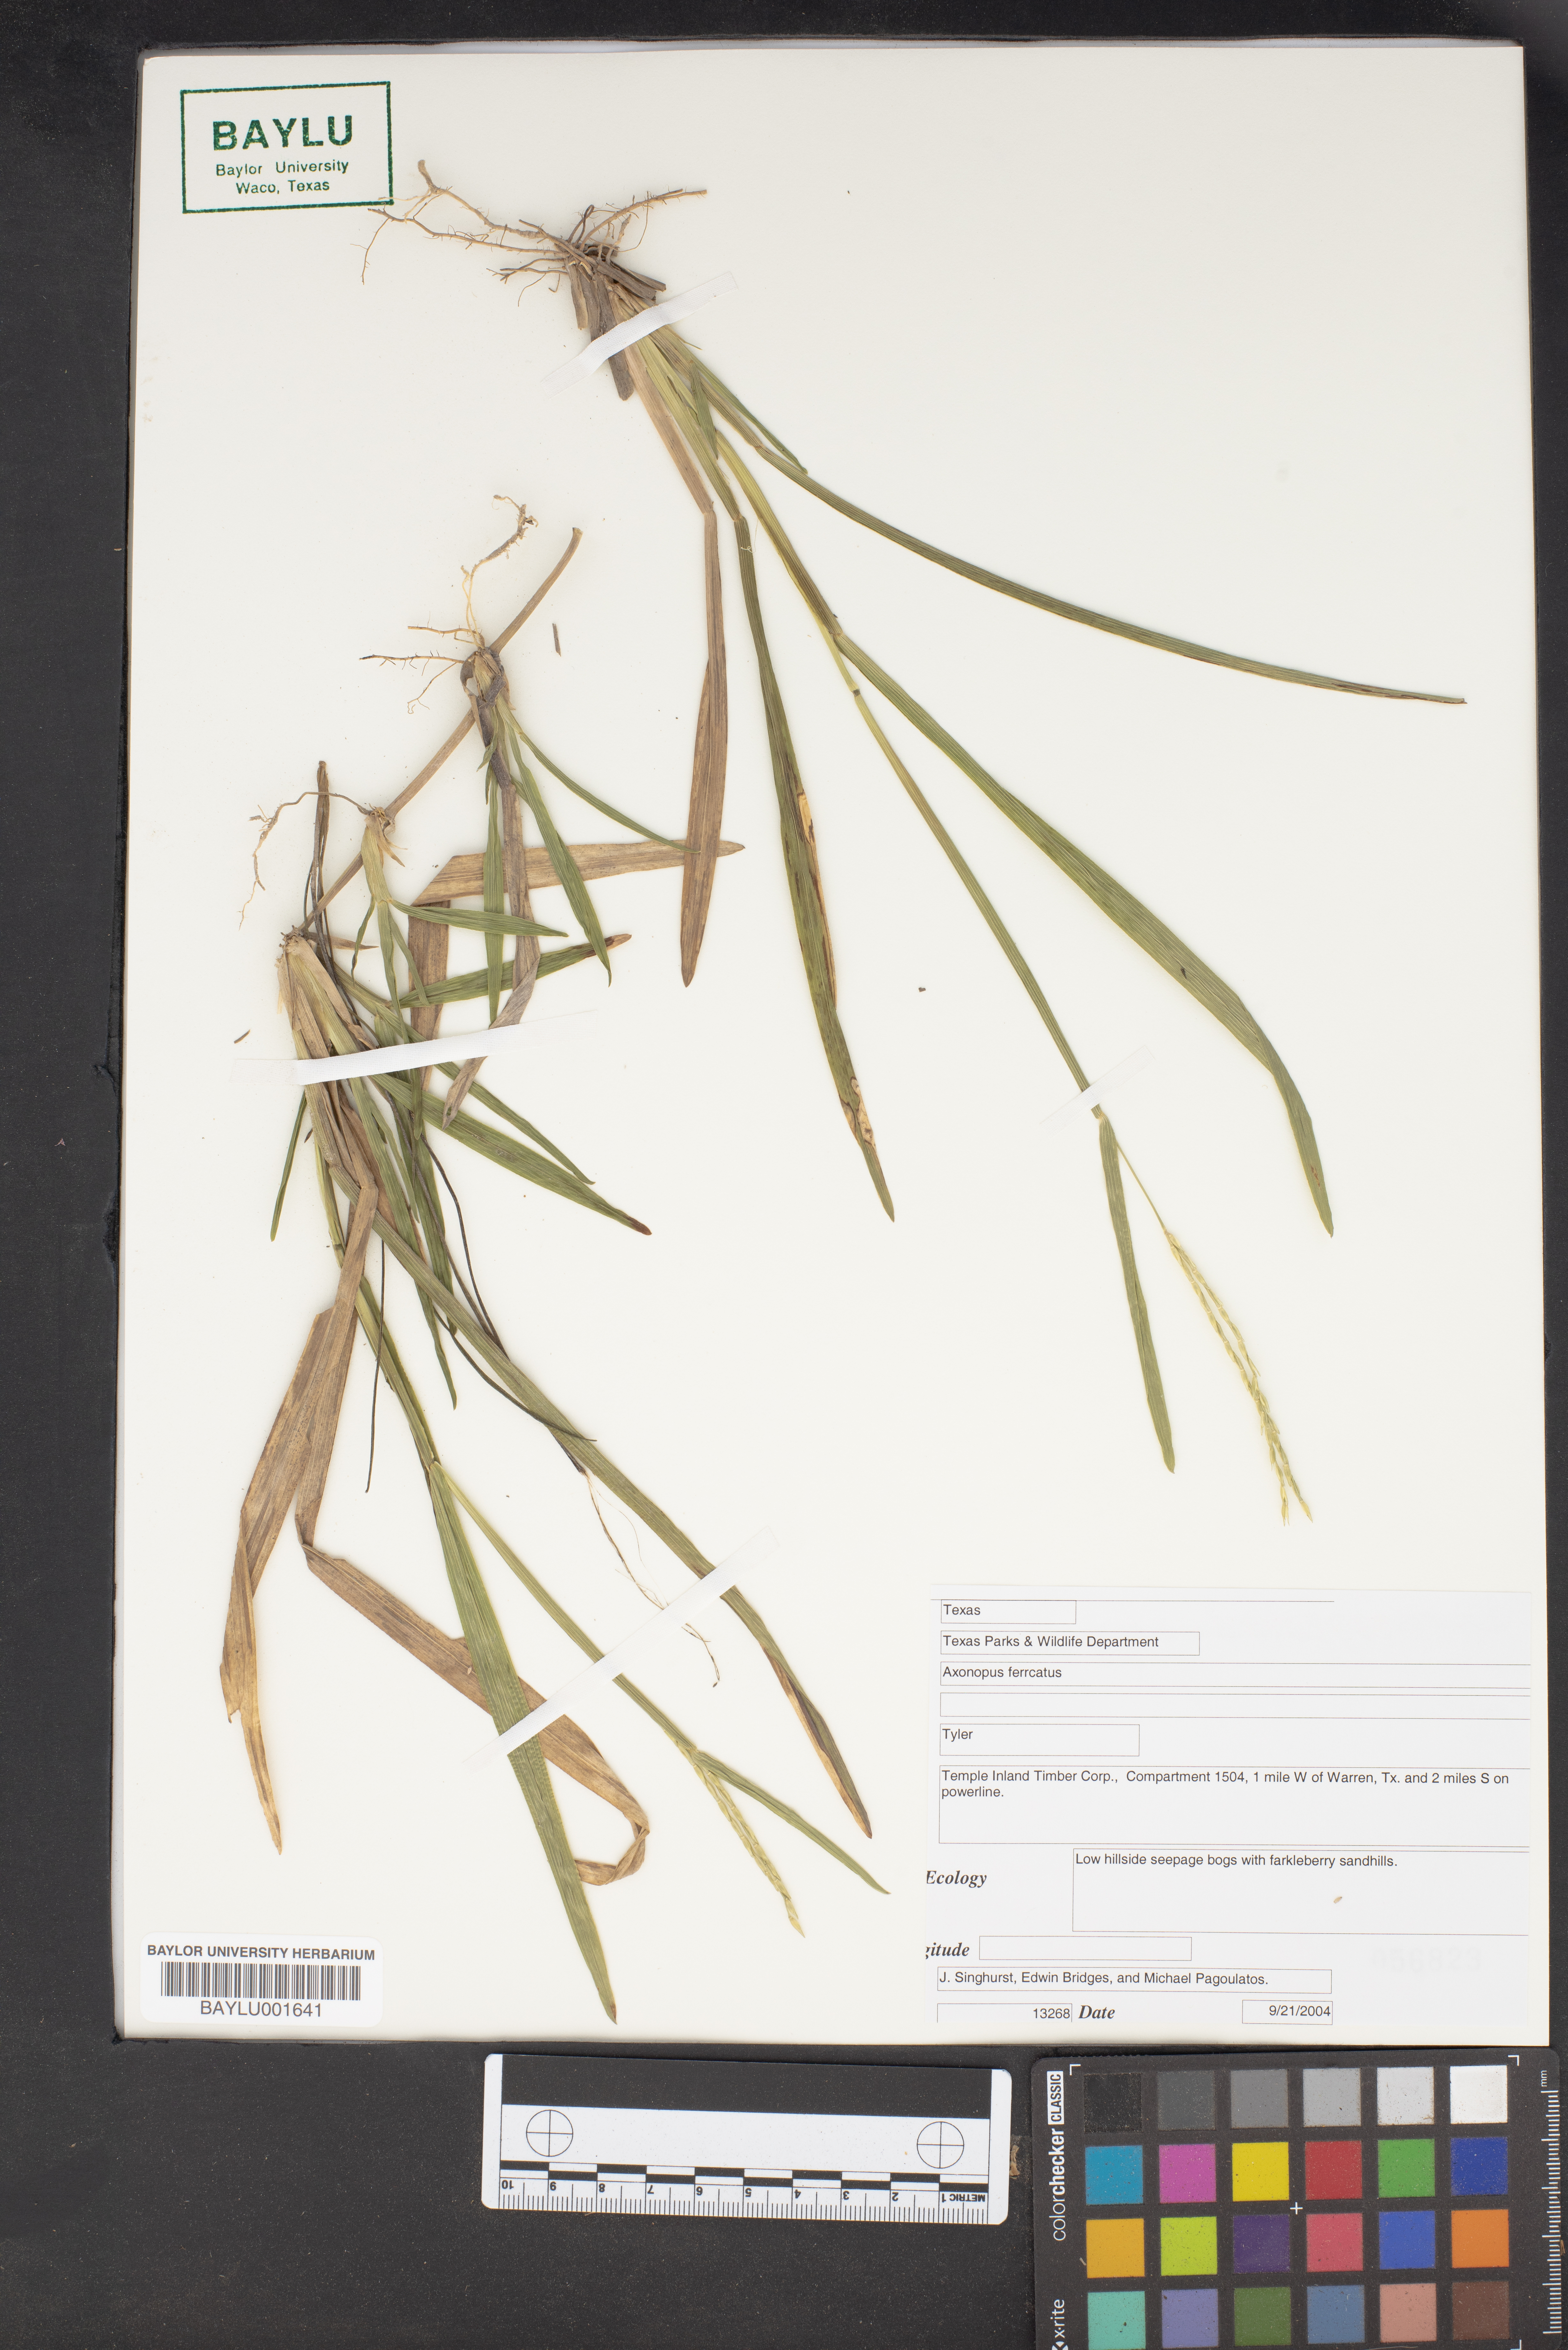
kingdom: Plantae
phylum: Tracheophyta
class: Liliopsida
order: Poales
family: Poaceae
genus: Axonopus
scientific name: Axonopus furcatus
